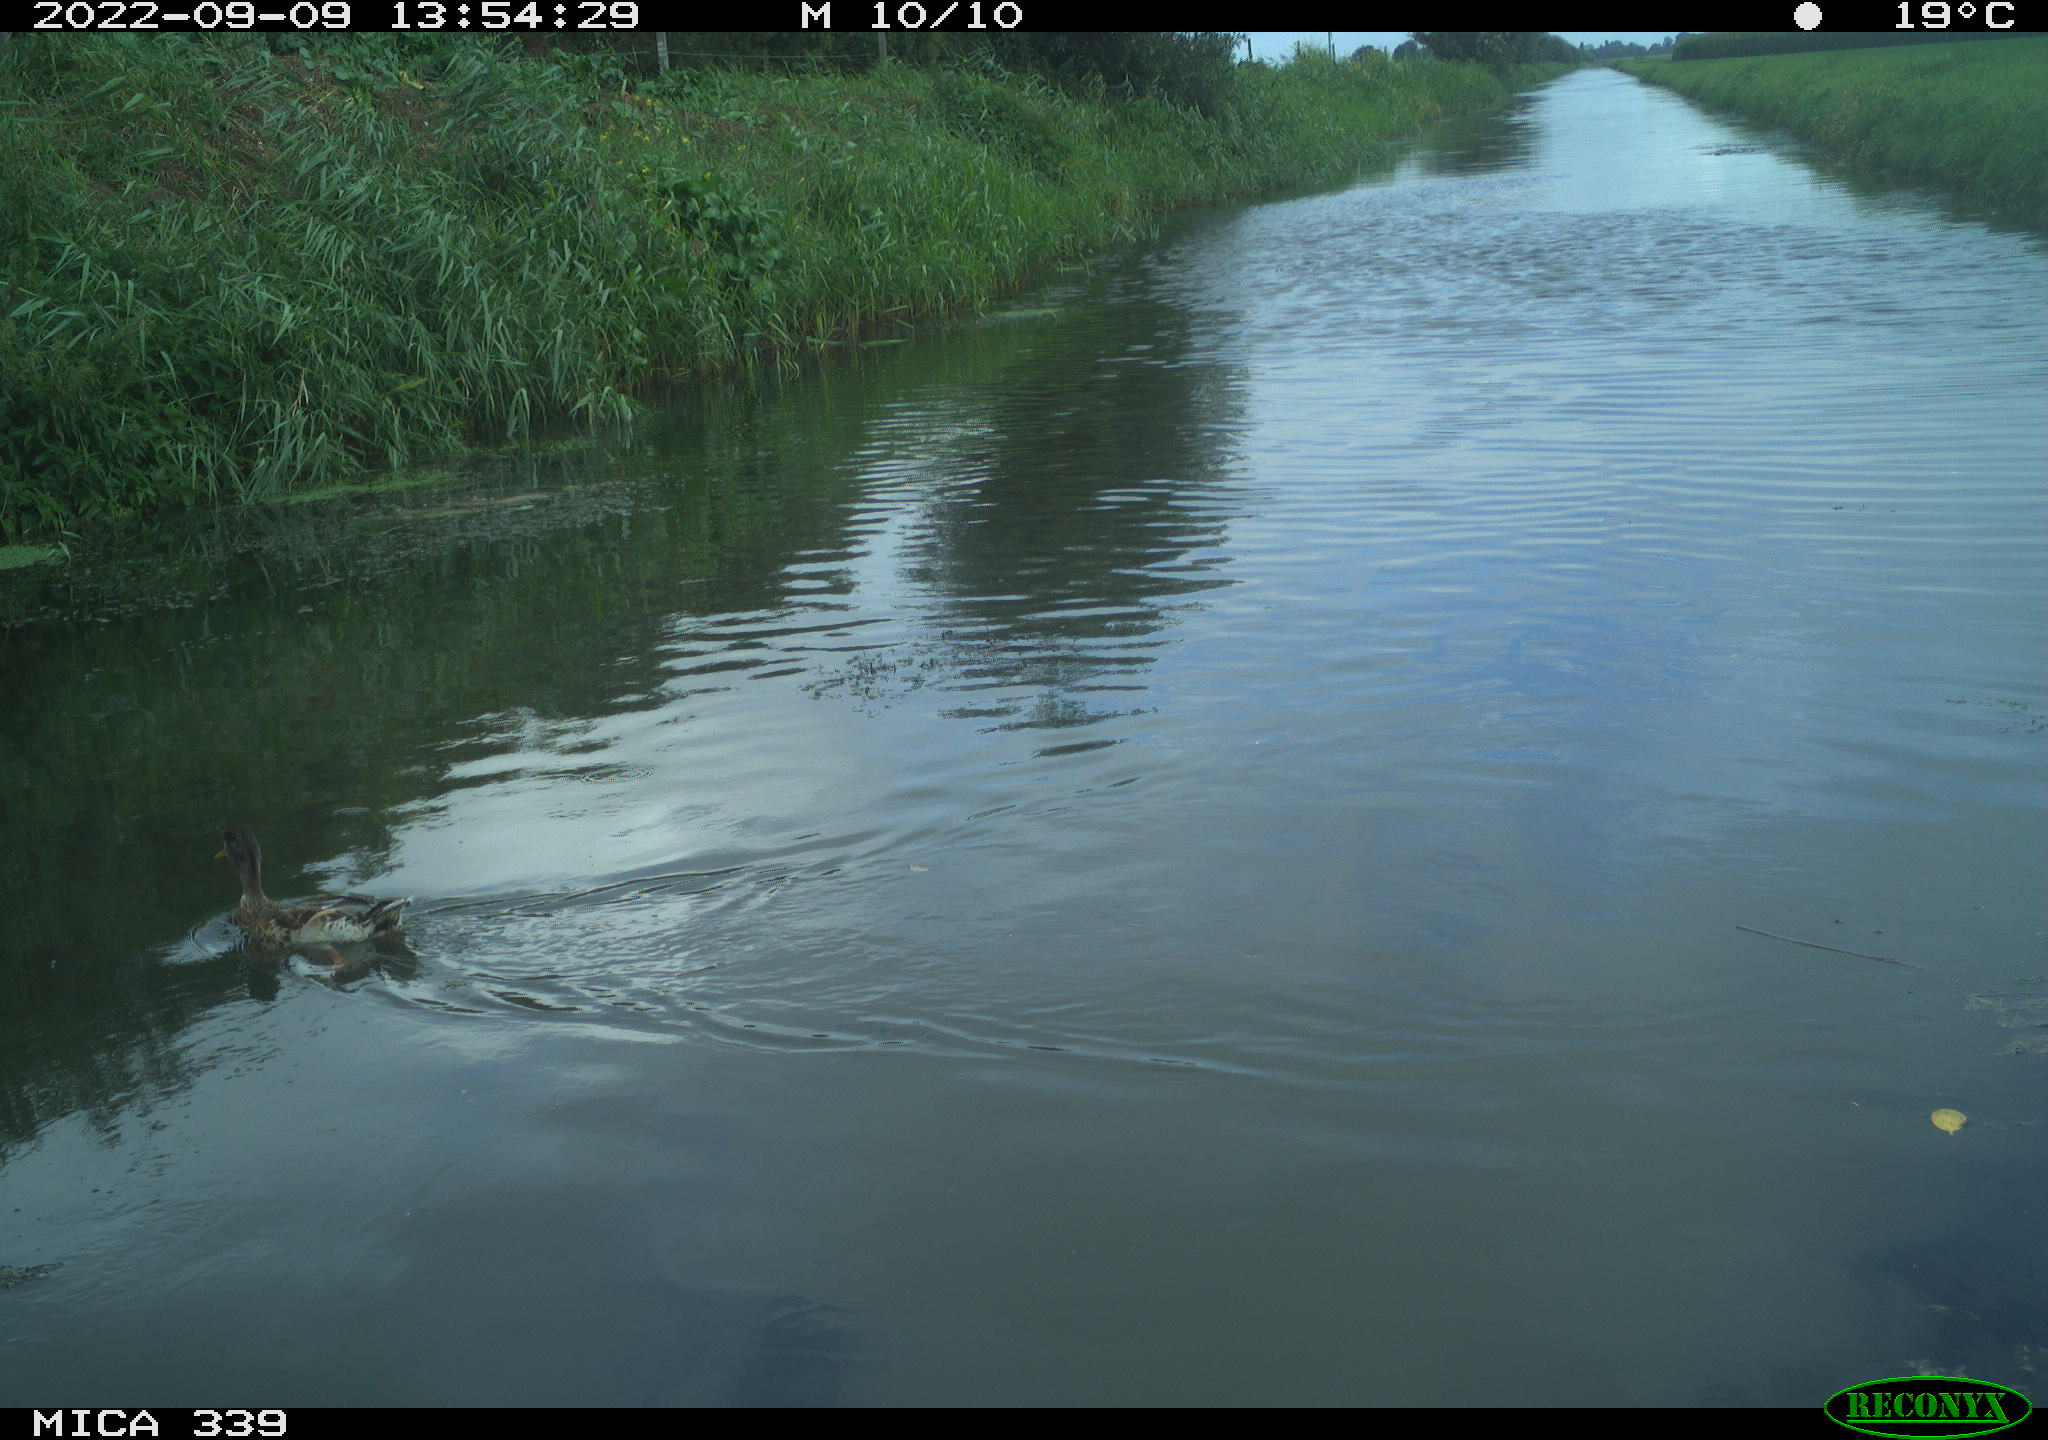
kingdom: Animalia
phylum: Chordata
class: Aves
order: Anseriformes
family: Anatidae
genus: Anas
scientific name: Anas
